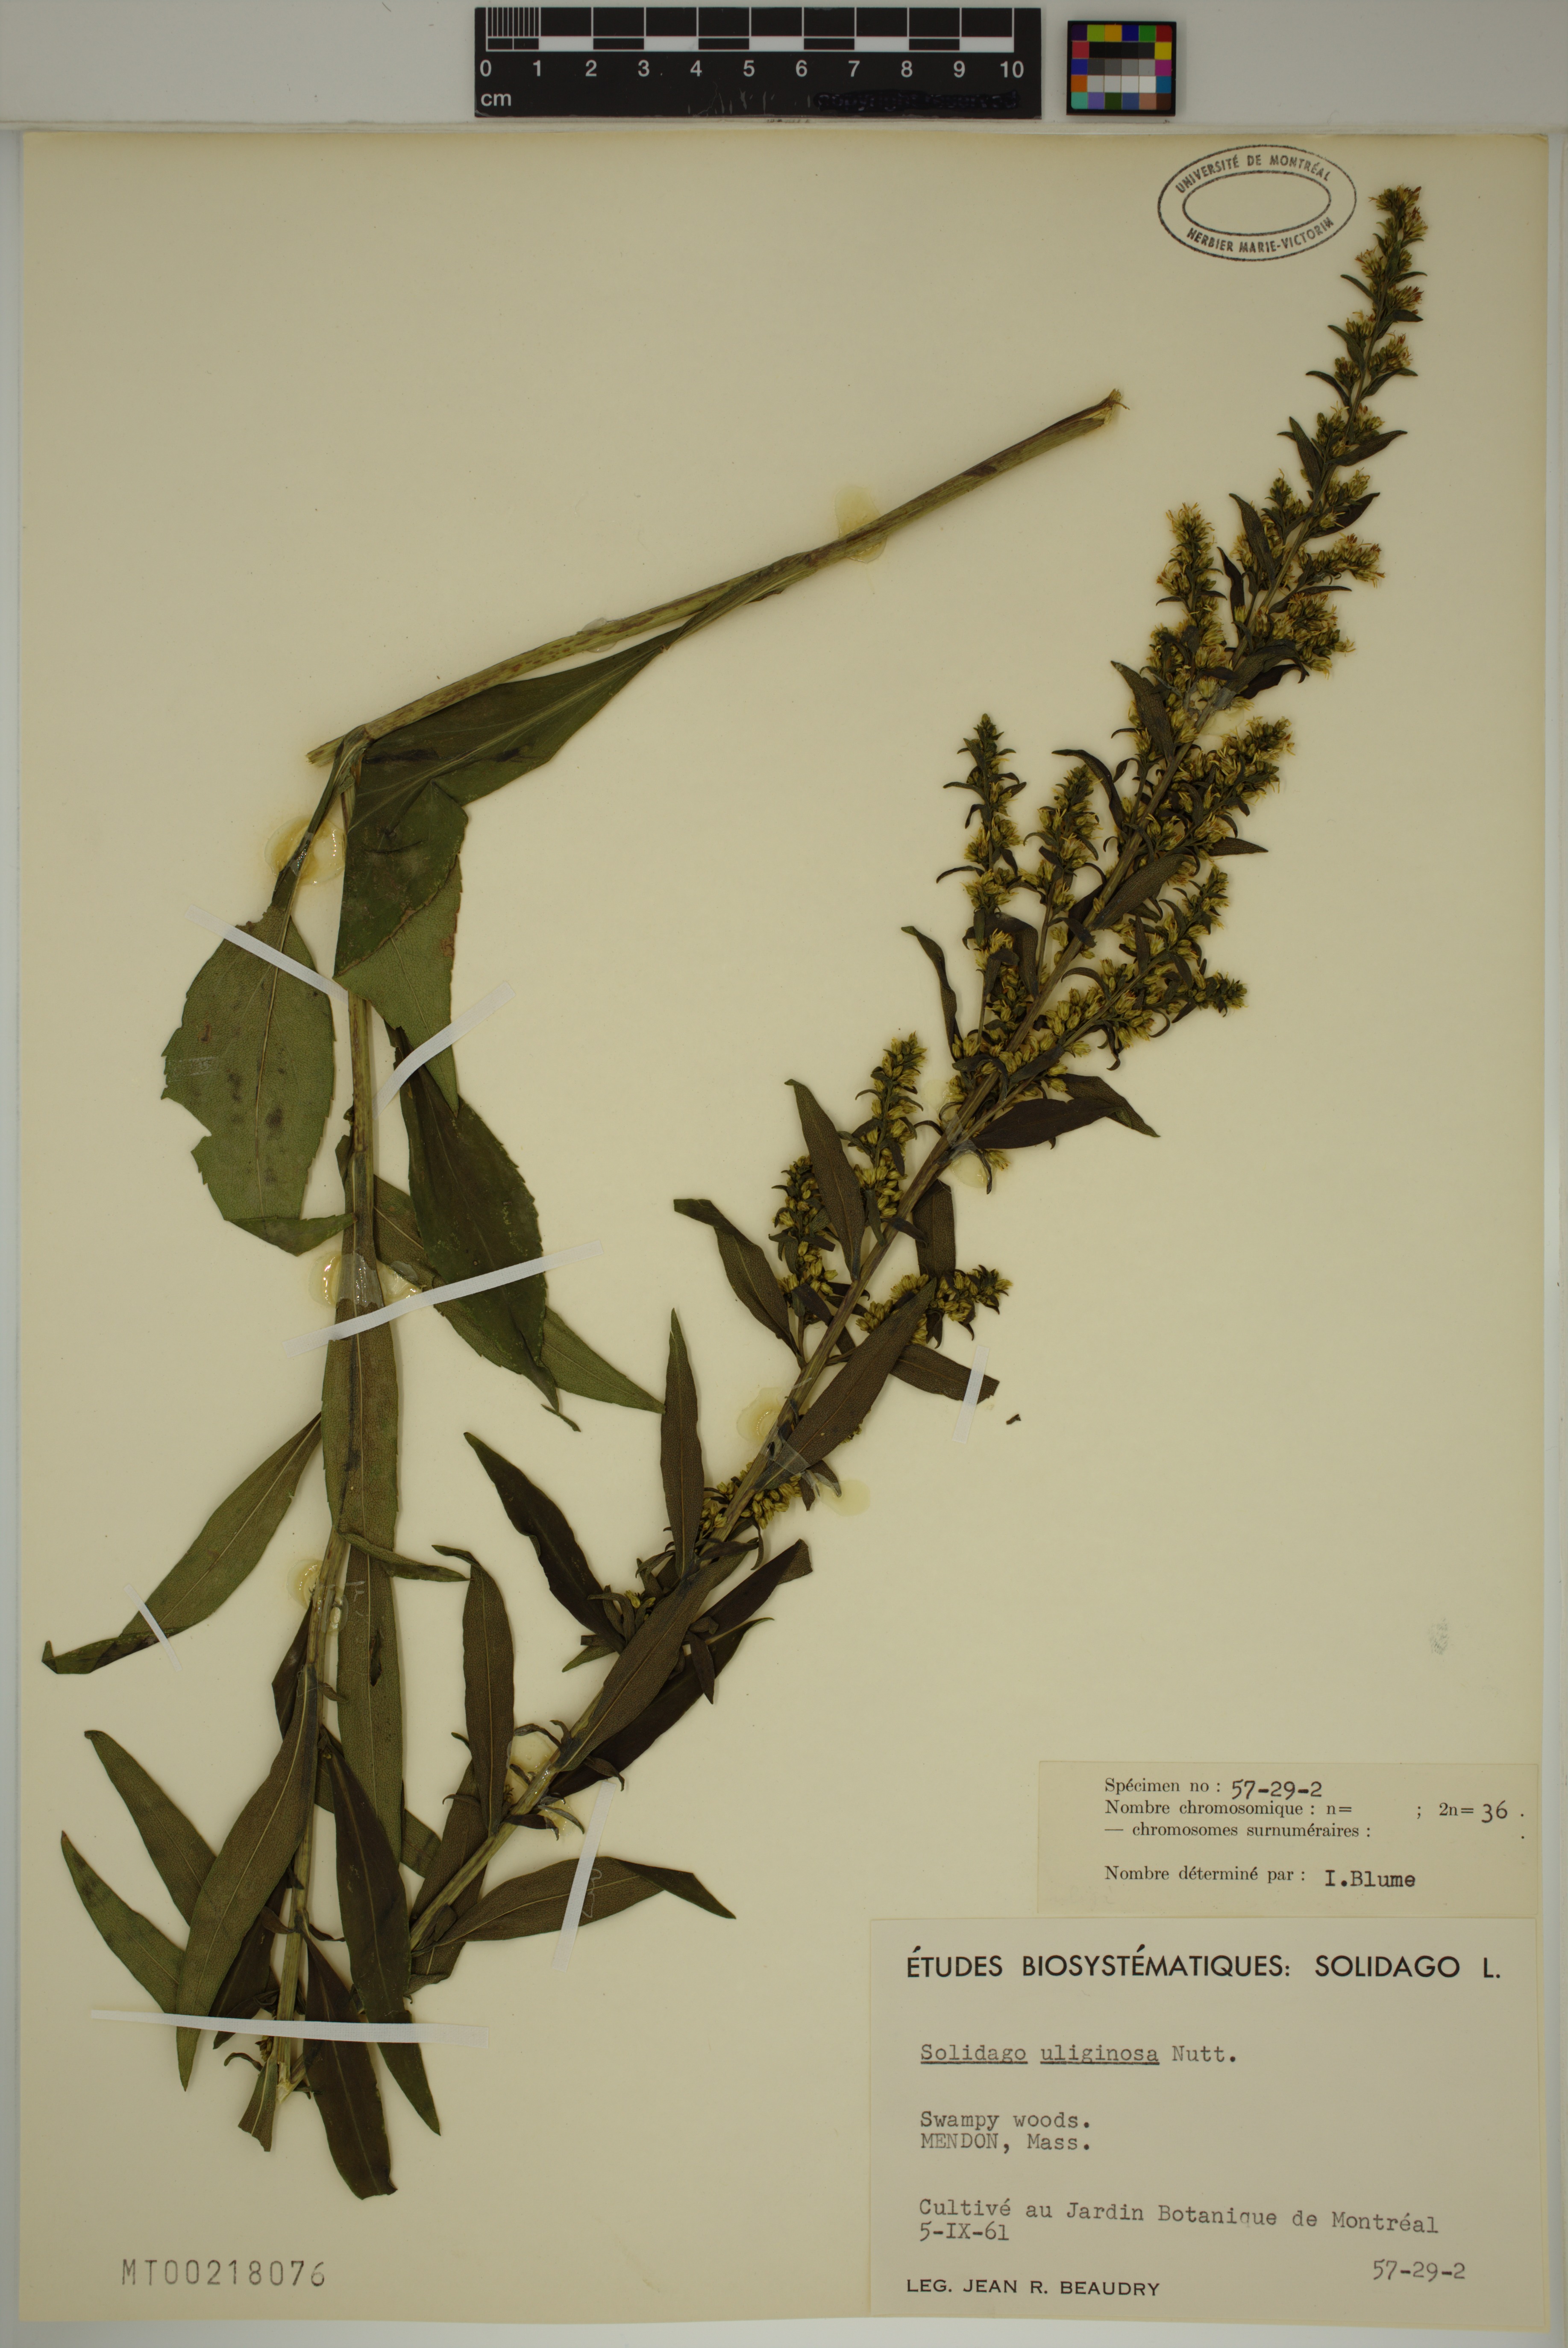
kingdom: Plantae
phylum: Tracheophyta
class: Magnoliopsida
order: Asterales
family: Asteraceae
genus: Solidago
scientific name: Solidago uliginosa
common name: Bog goldenrod
